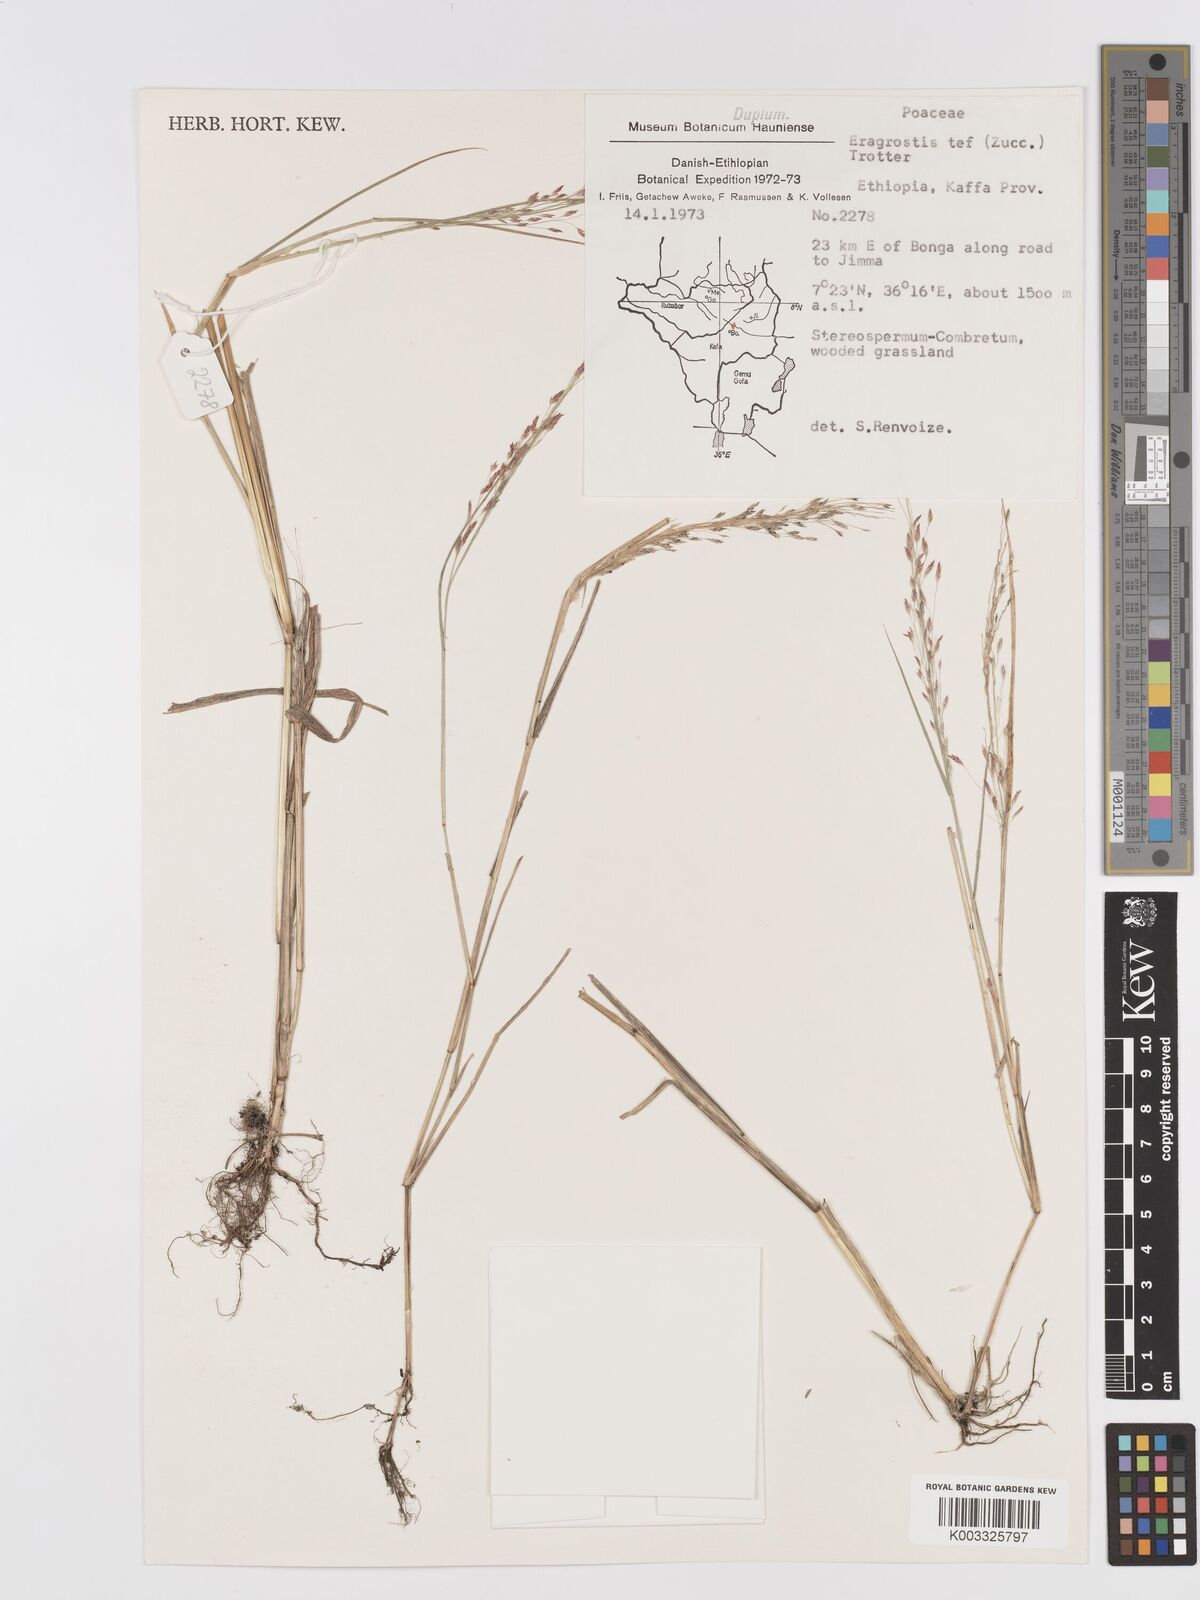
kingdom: Plantae
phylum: Tracheophyta
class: Liliopsida
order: Poales
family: Poaceae
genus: Eragrostis
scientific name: Eragrostis tef
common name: Teff
